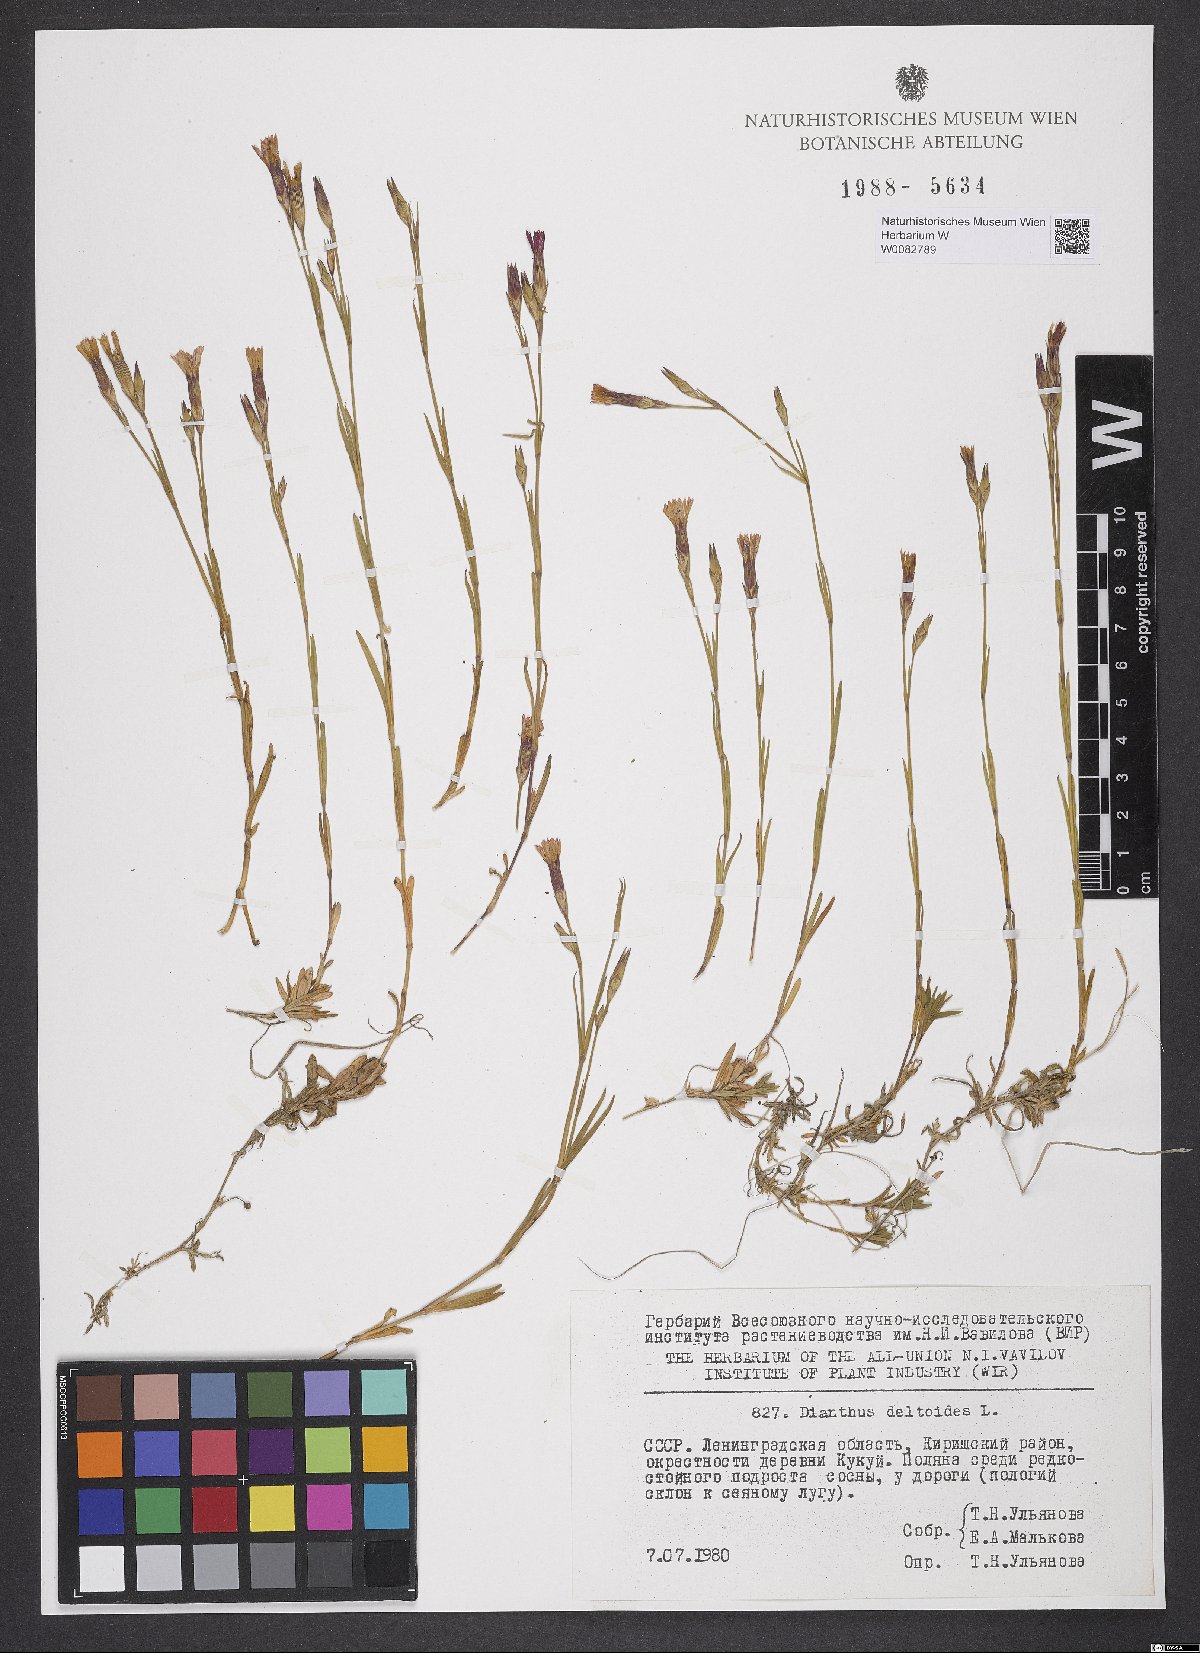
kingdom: Plantae
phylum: Tracheophyta
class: Magnoliopsida
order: Caryophyllales
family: Caryophyllaceae
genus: Dianthus
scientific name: Dianthus deltoides
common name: Maiden pink
